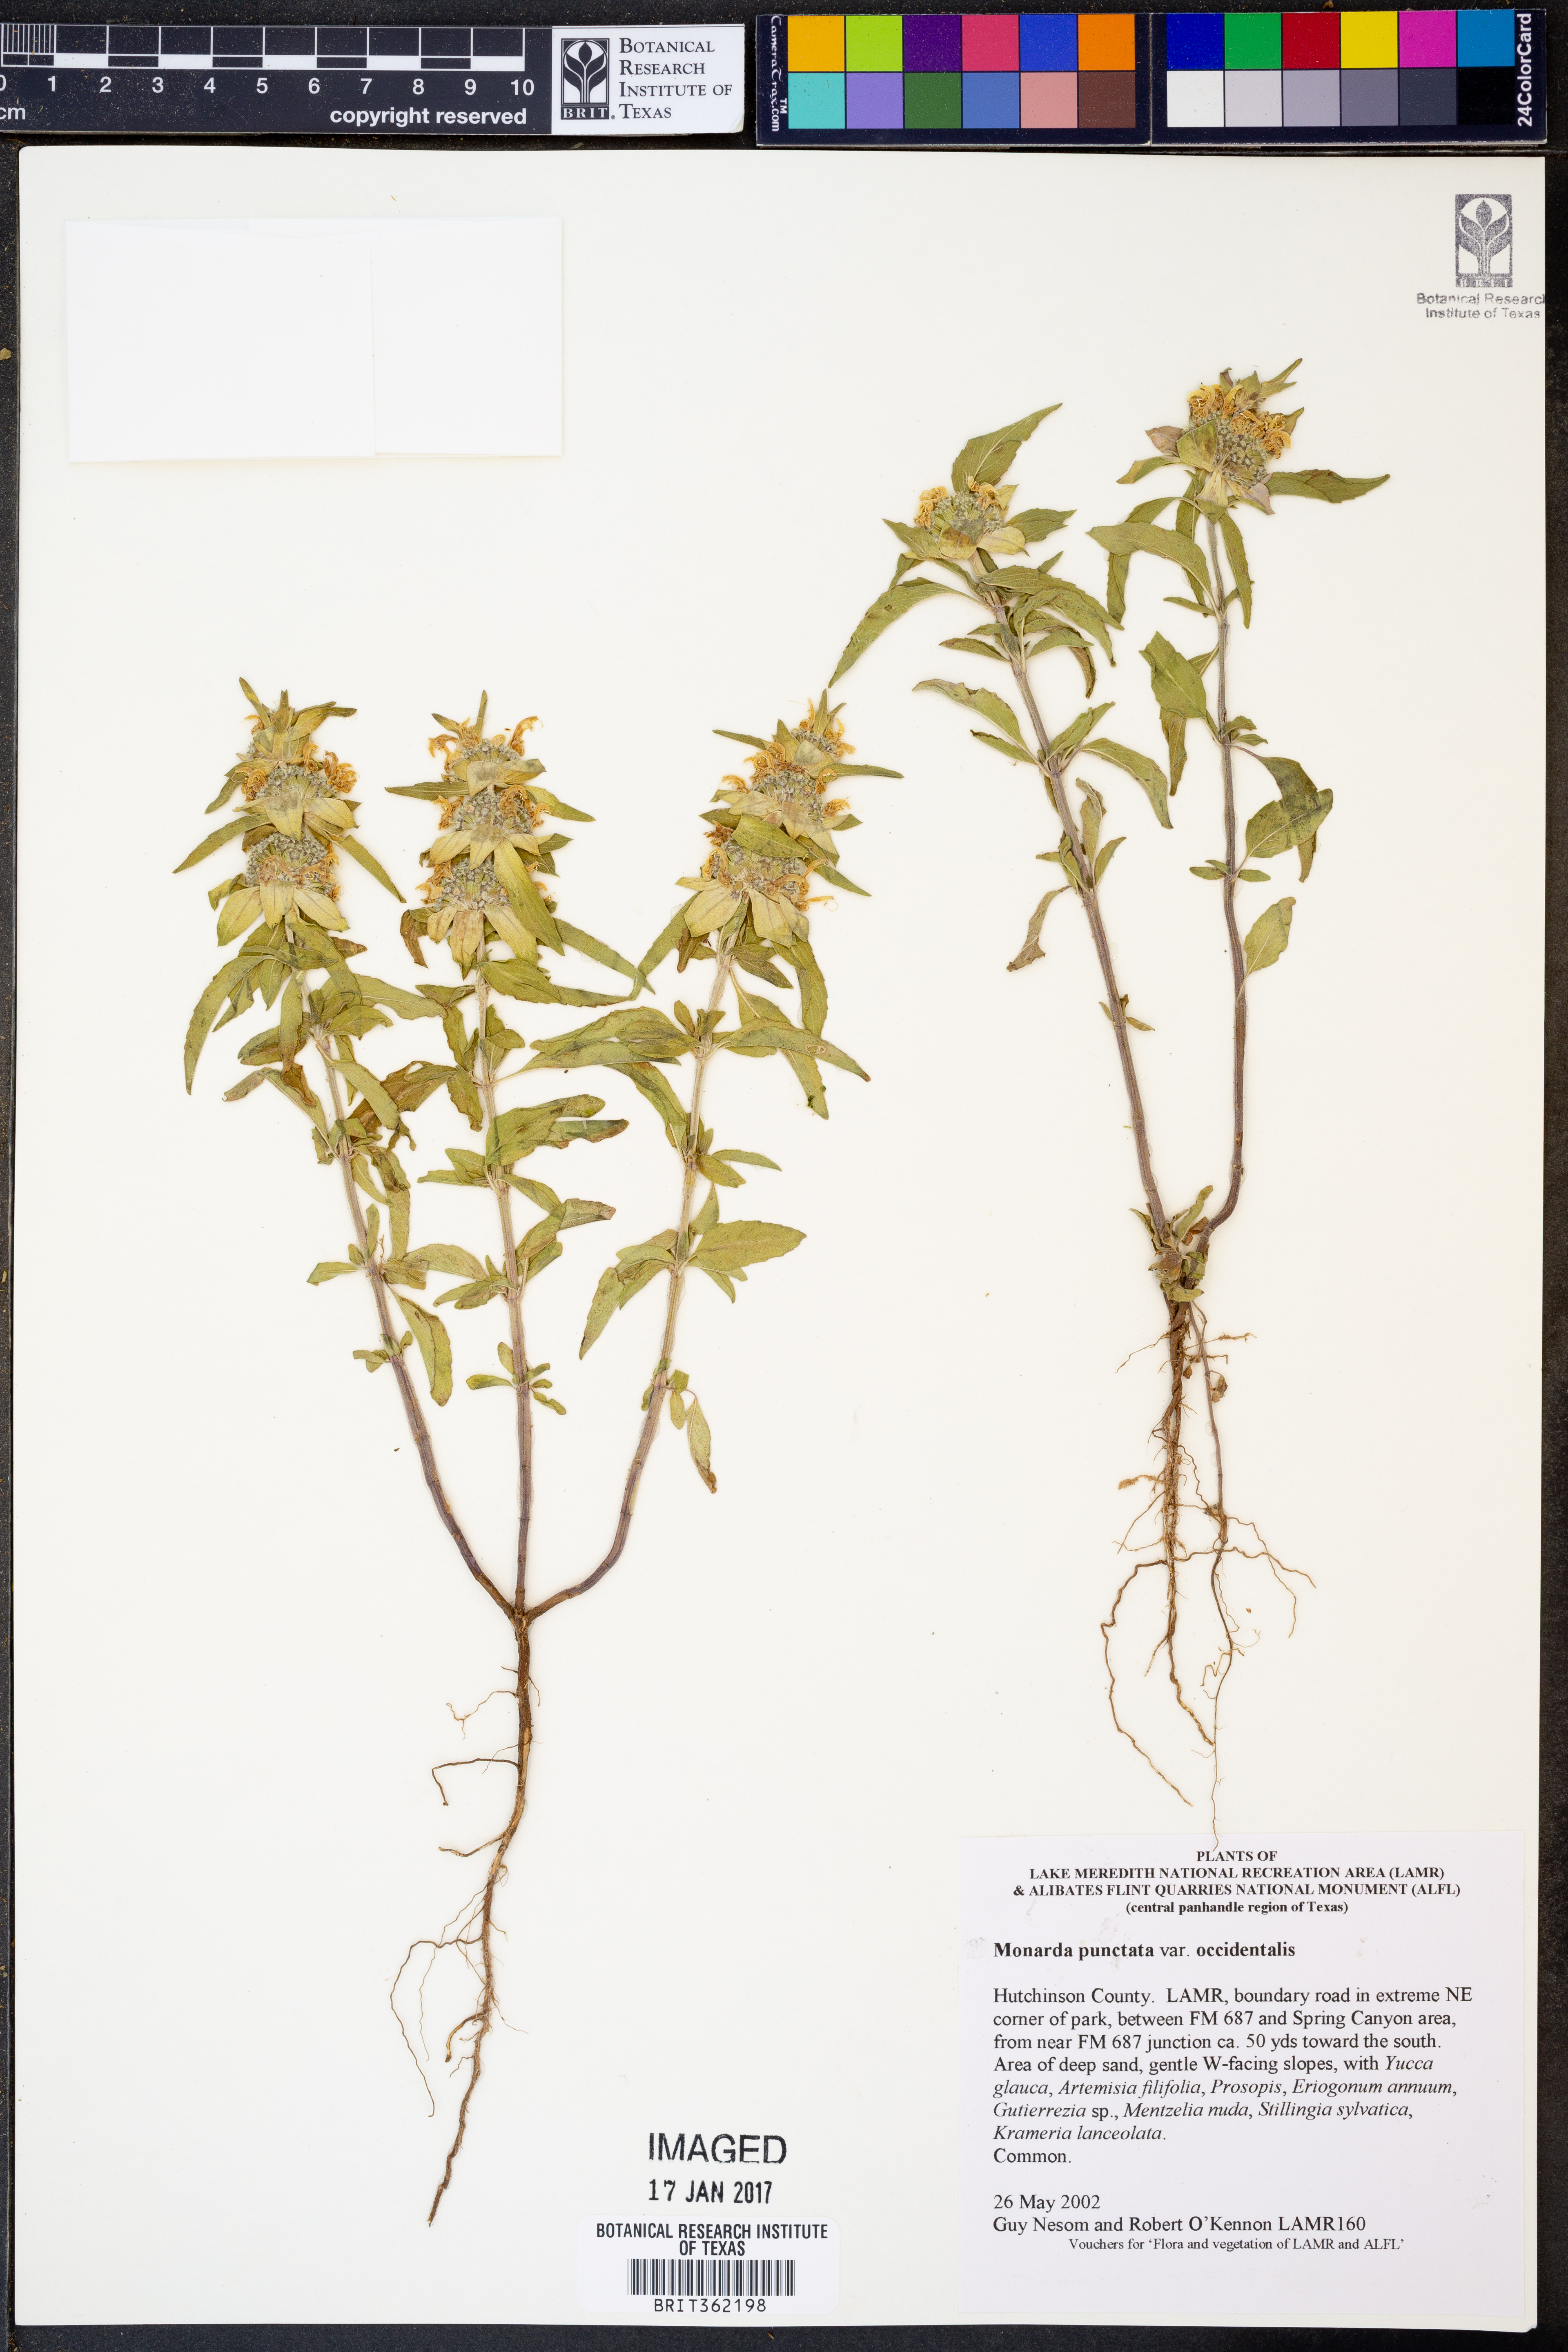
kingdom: Plantae
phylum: Tracheophyta
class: Magnoliopsida
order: Lamiales
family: Lamiaceae
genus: Monarda
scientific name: Monarda punctata
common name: Dotted monarda
